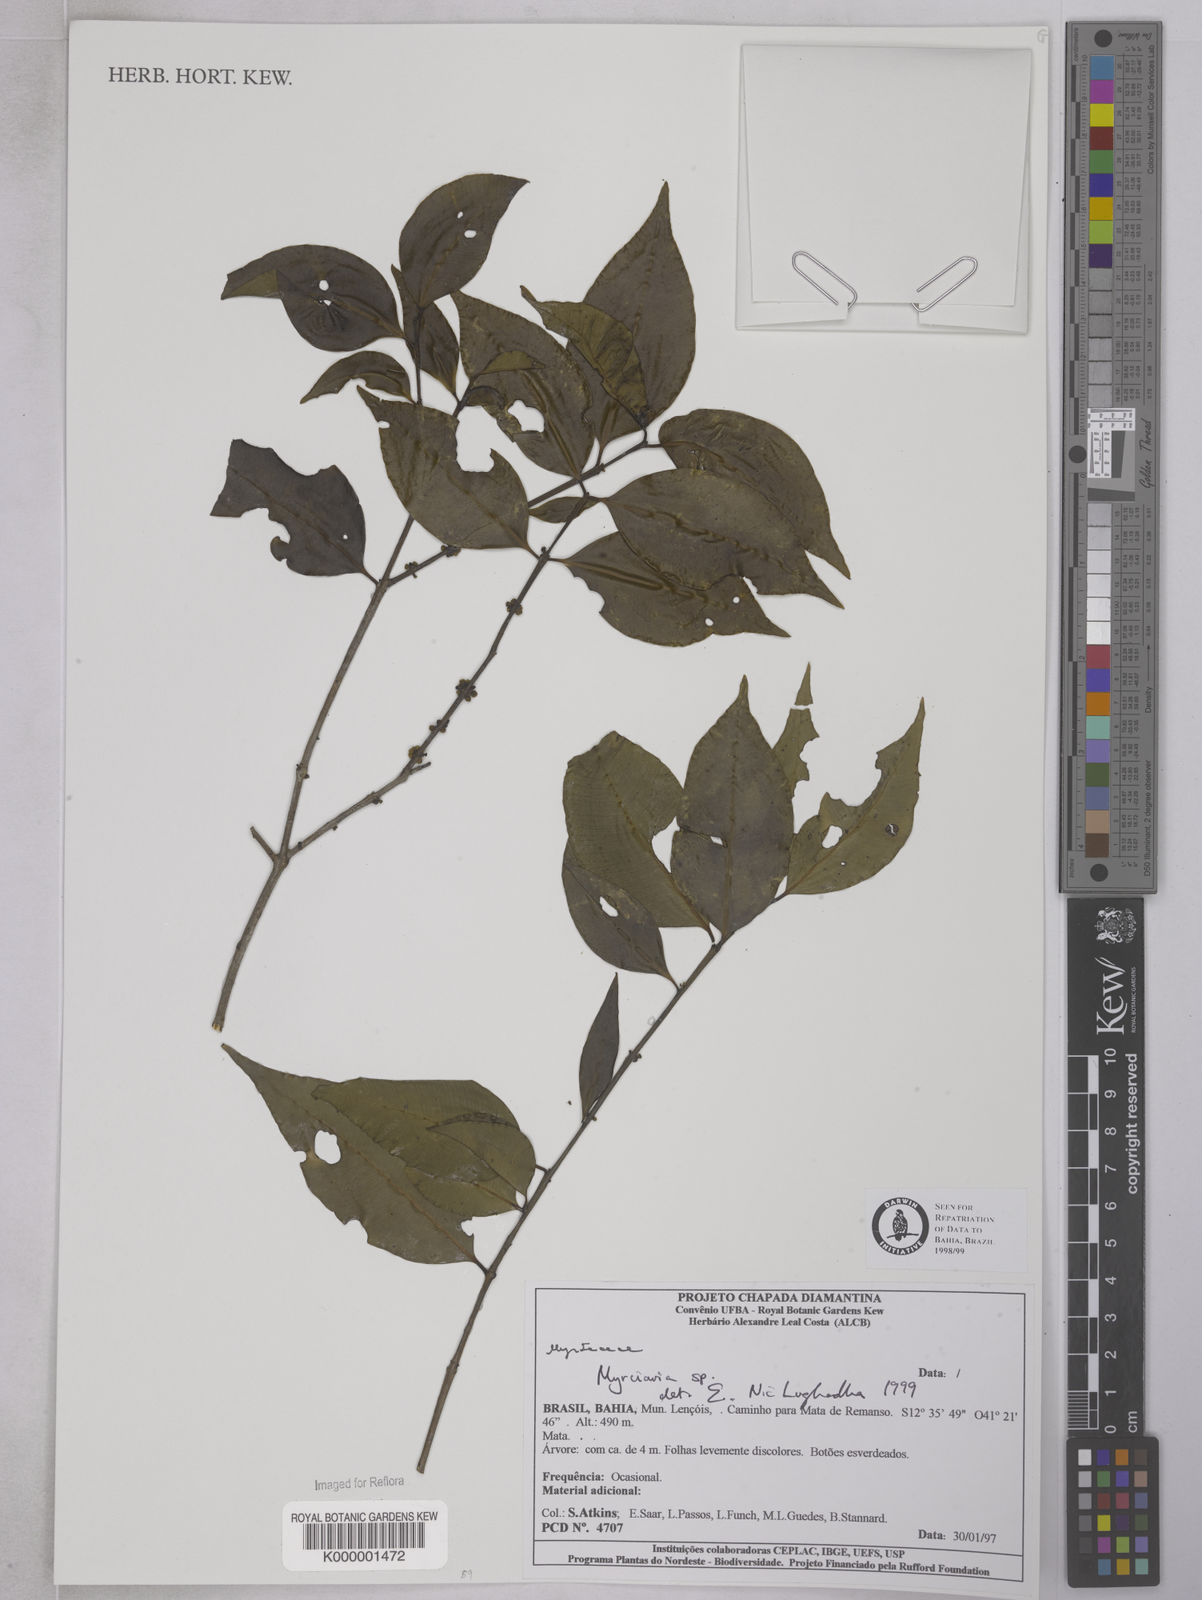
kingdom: Plantae
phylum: Tracheophyta
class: Magnoliopsida
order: Myrtales
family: Myrtaceae
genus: Myrciaria
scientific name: Myrciaria
